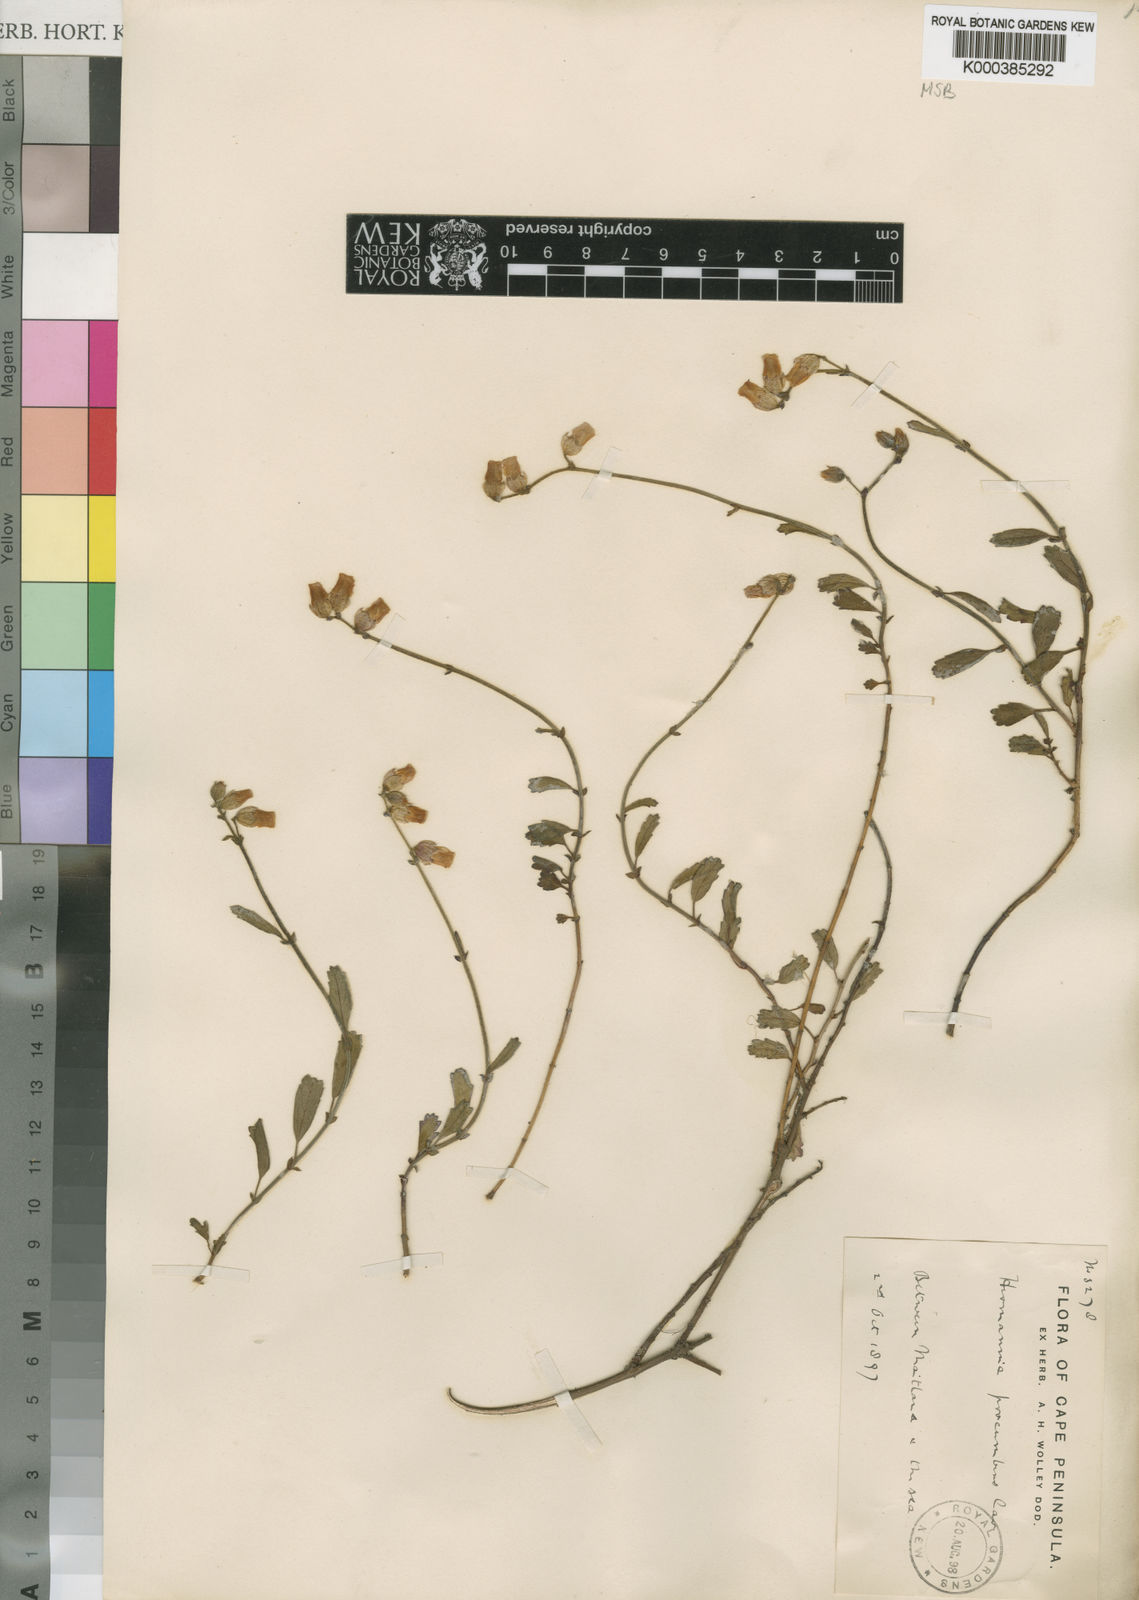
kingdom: Plantae
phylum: Tracheophyta
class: Magnoliopsida
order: Malvales
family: Malvaceae
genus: Hermannia
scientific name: Hermannia procumbens
